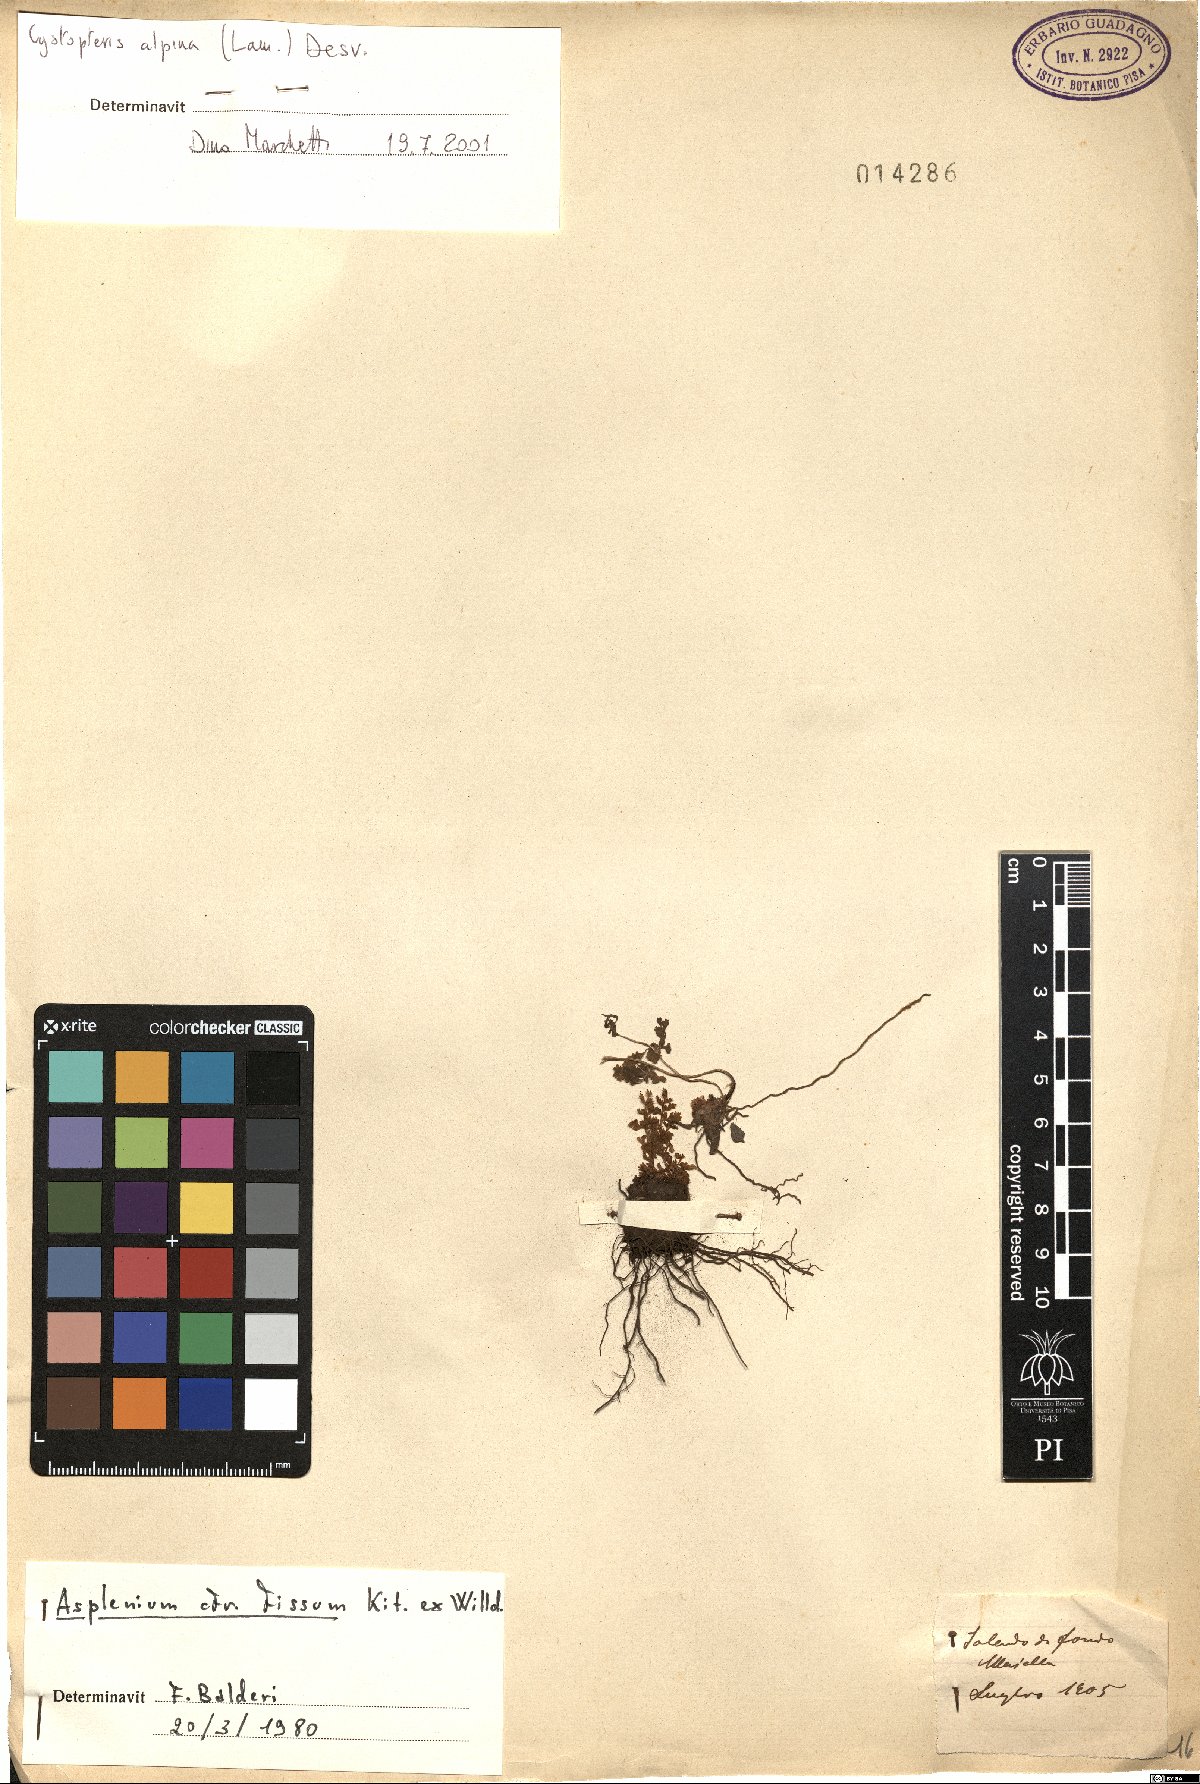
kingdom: Plantae
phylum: Tracheophyta
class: Polypodiopsida
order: Polypodiales
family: Cystopteridaceae
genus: Cystopteris
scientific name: Cystopteris alpina
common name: Alpine bladder-fern
